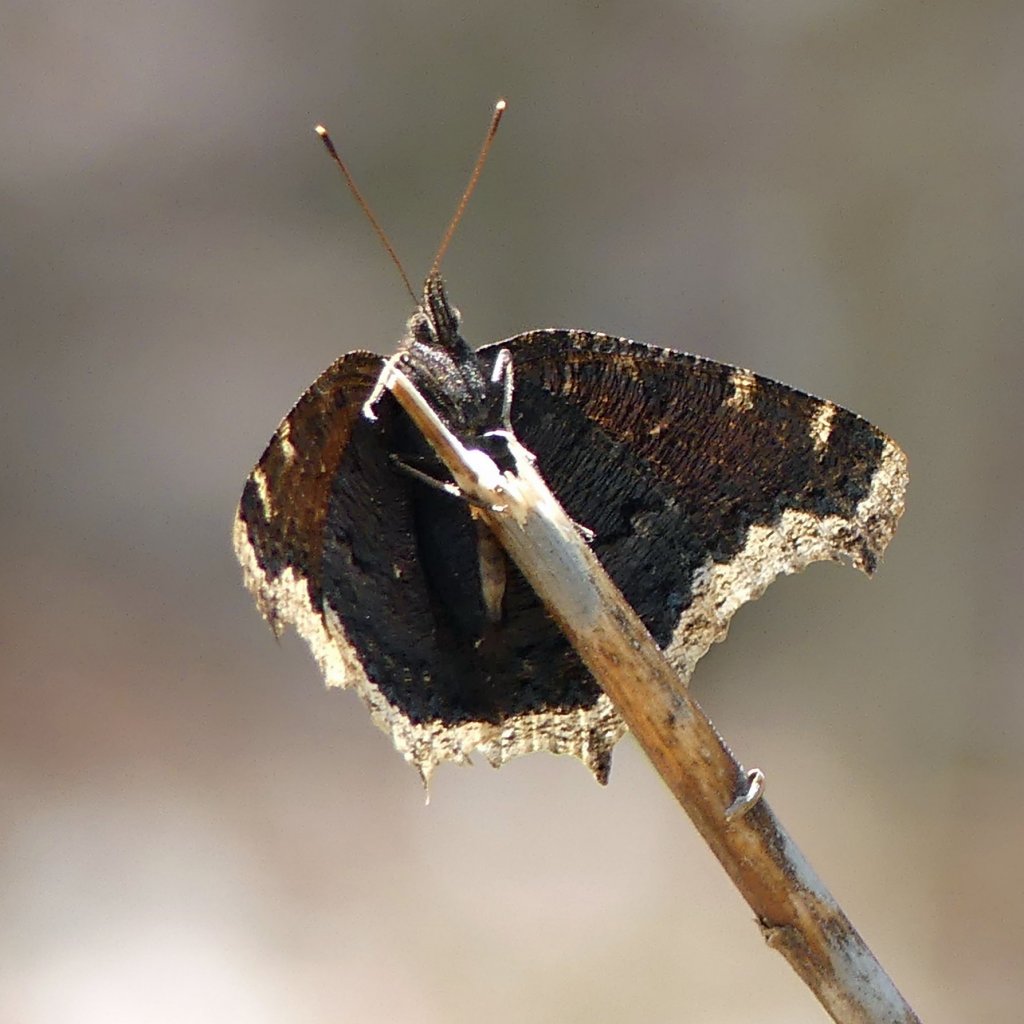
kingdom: Animalia
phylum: Arthropoda
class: Insecta
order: Lepidoptera
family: Nymphalidae
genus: Nymphalis
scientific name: Nymphalis antiopa
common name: Mourning Cloak
